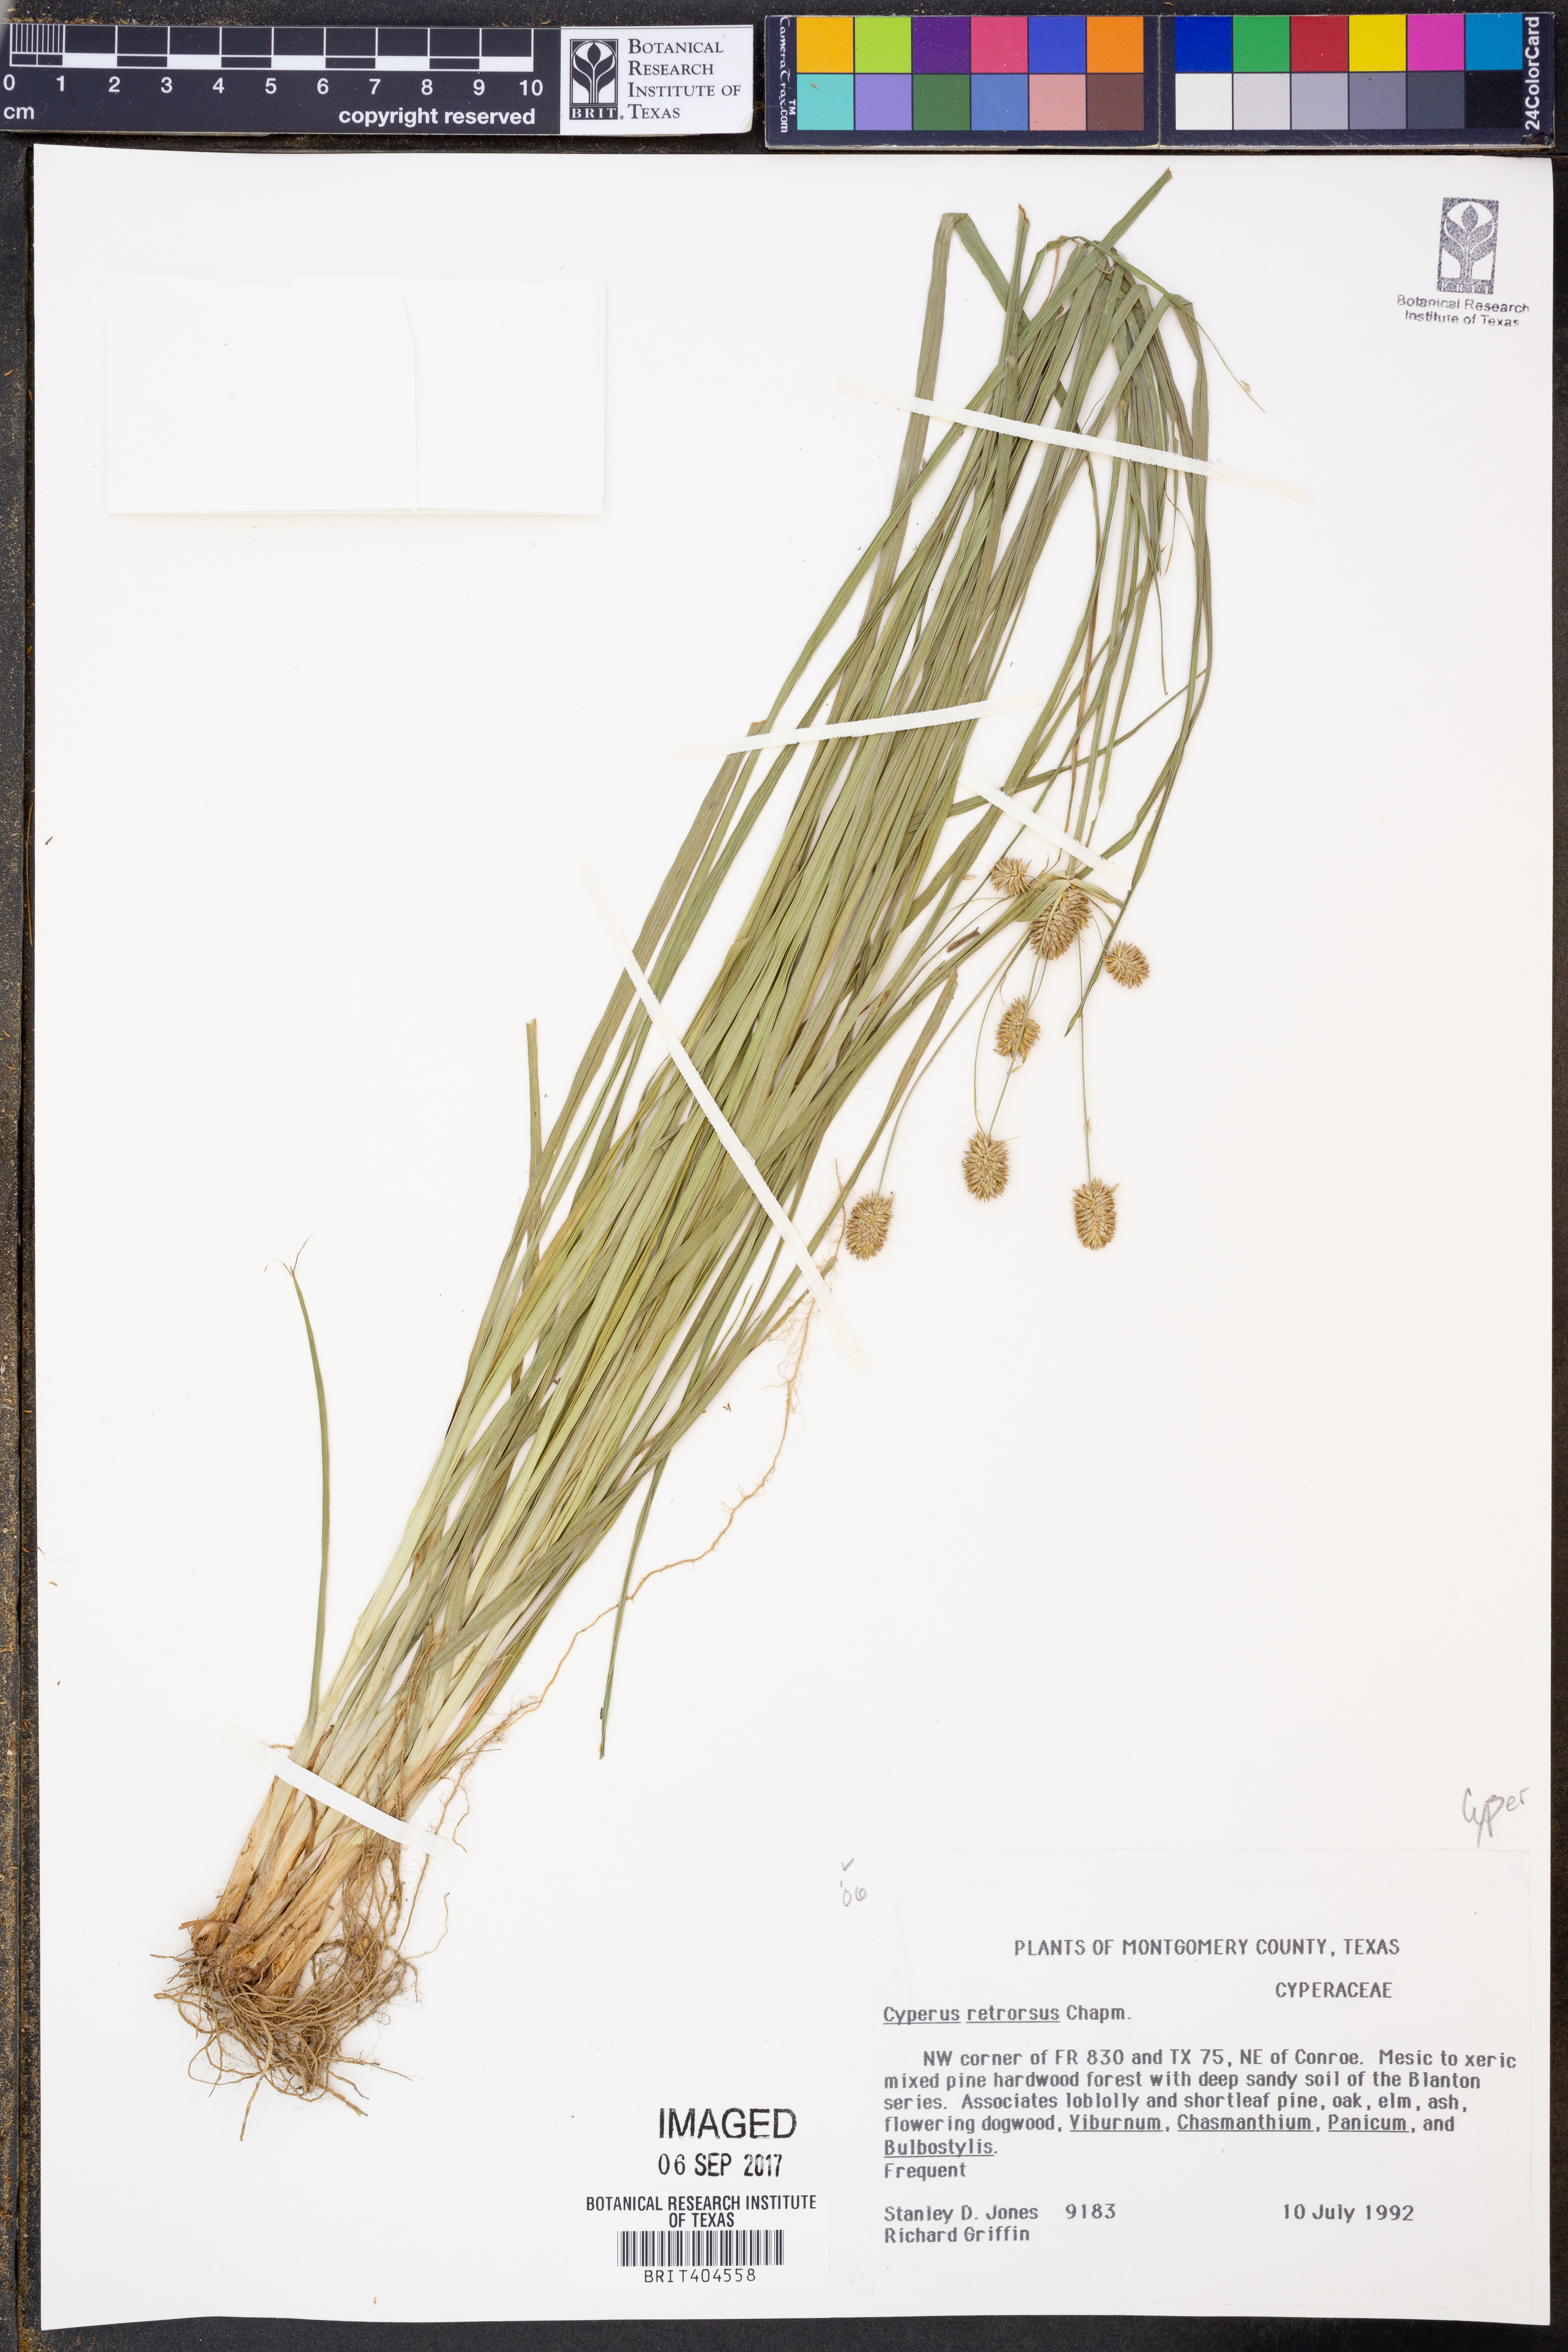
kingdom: Plantae
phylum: Tracheophyta
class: Liliopsida
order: Poales
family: Cyperaceae
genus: Cyperus
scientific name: Cyperus retrorsus
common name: Pinebarren flat sedge
